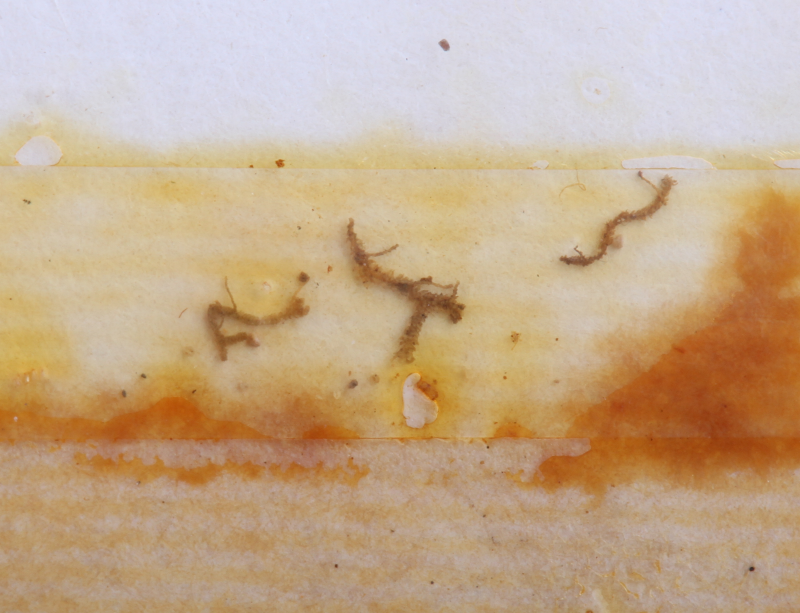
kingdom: Plantae
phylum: Marchantiophyta
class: Jungermanniopsida
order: Jungermanniales
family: Lepidoziaceae
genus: Acromastigum
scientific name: Acromastigum
